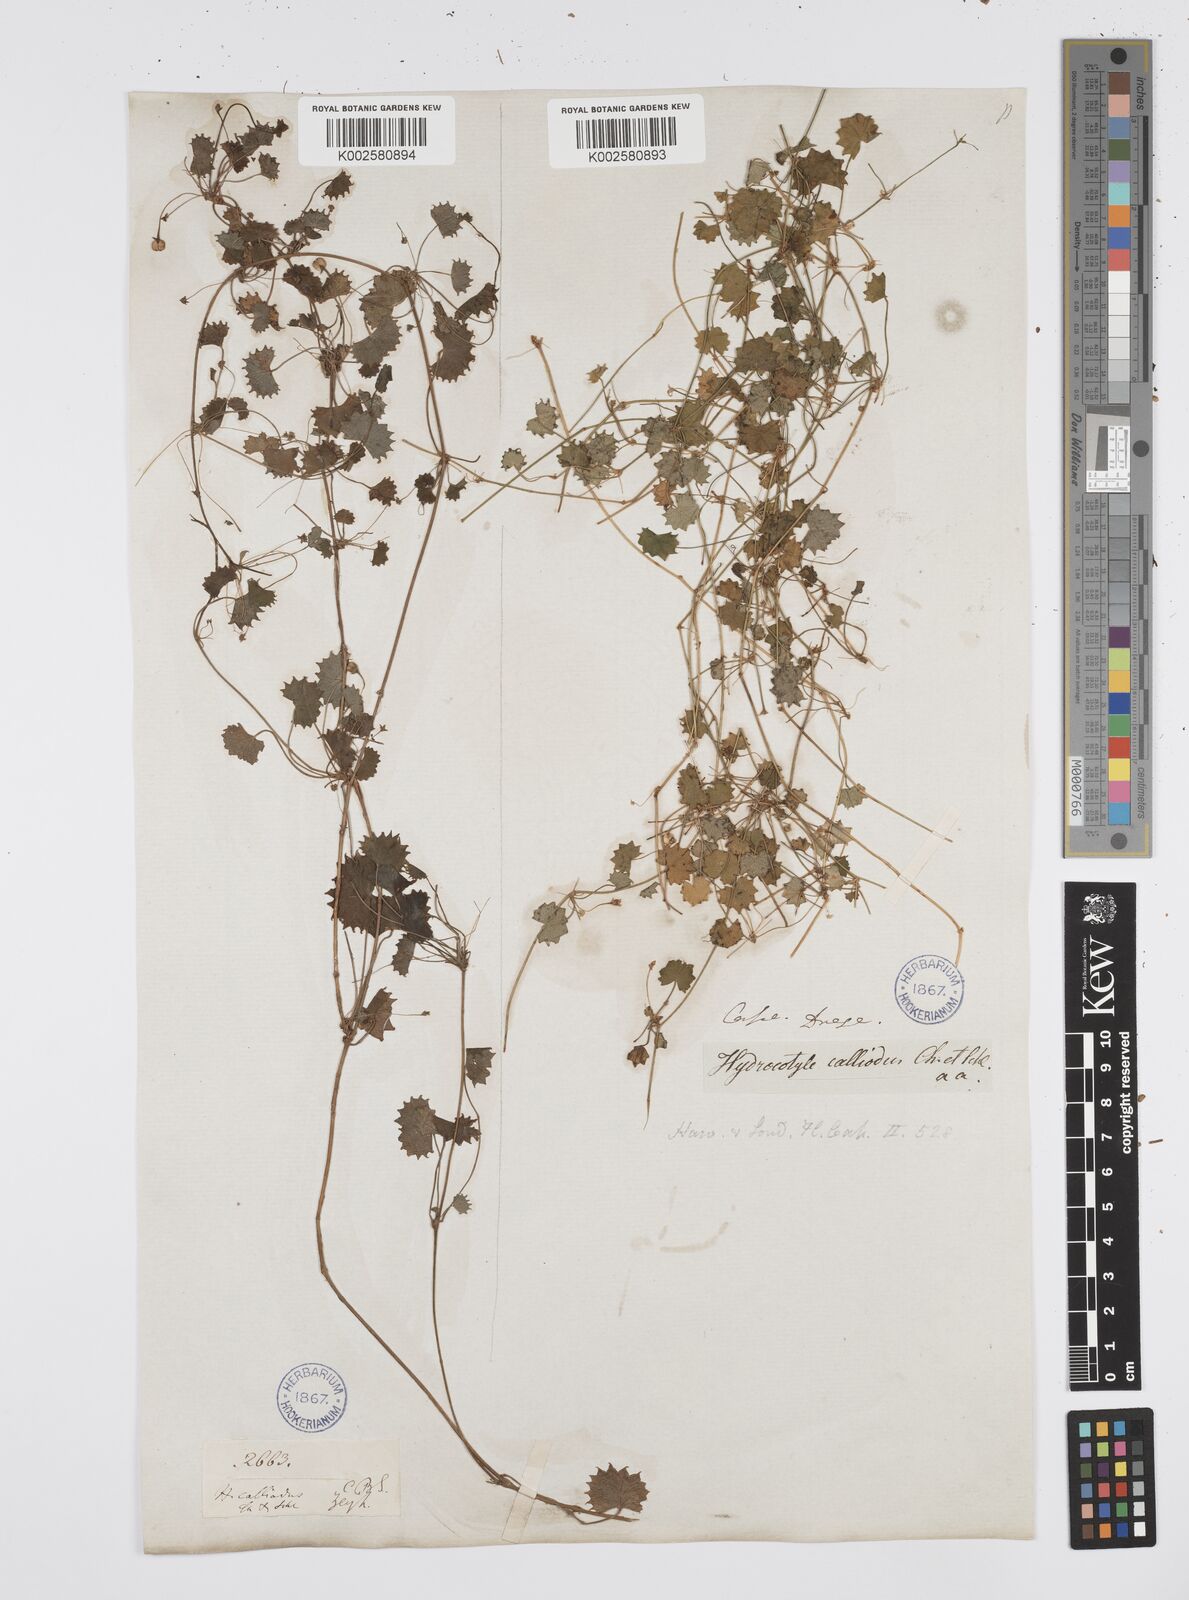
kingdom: Plantae
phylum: Tracheophyta
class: Magnoliopsida
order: Apiales
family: Apiaceae
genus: Centella
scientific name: Centella
